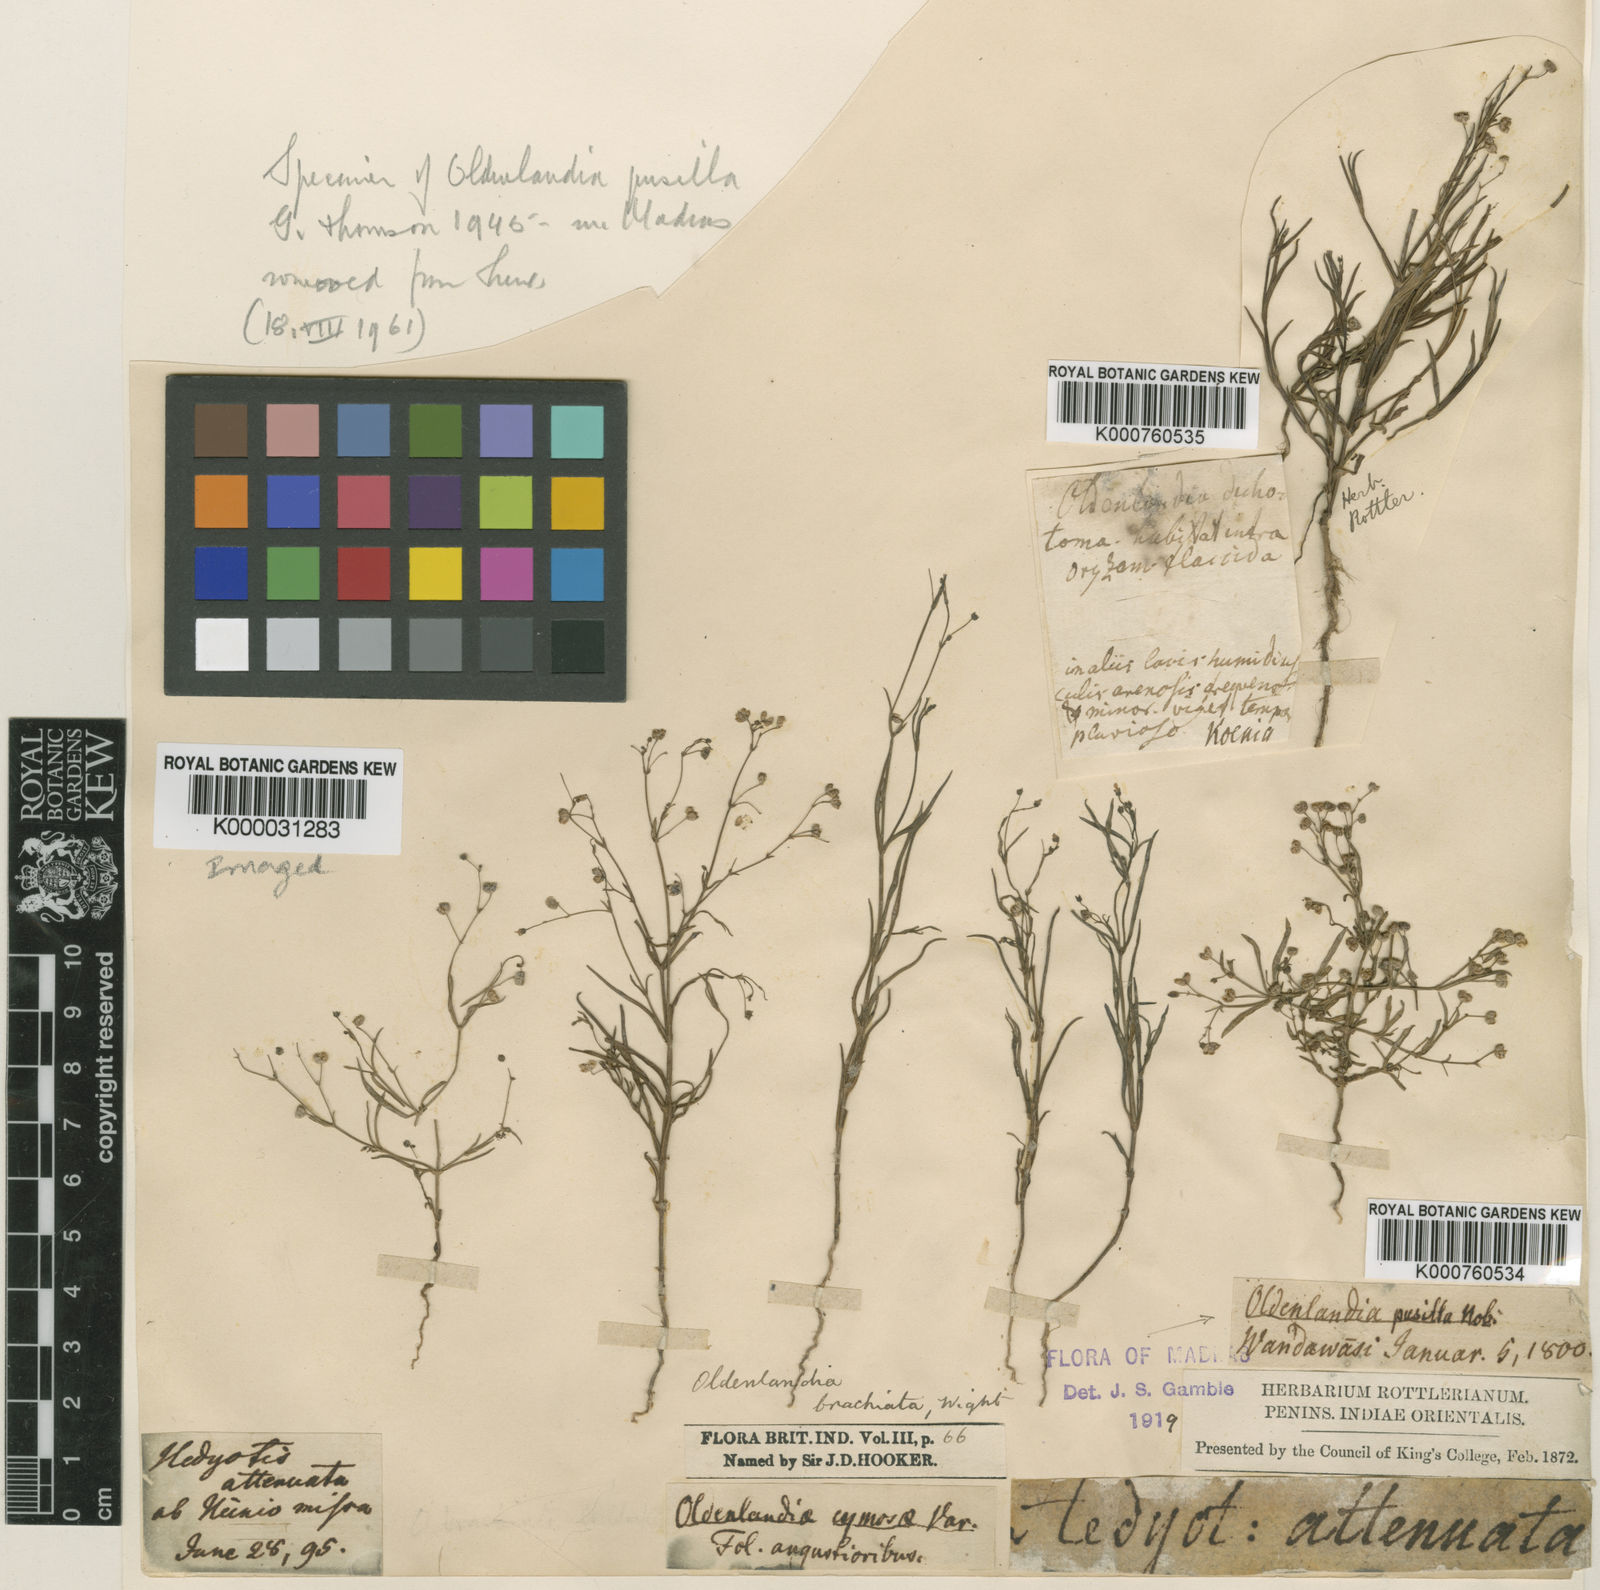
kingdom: Plantae
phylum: Tracheophyta
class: Magnoliopsida
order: Gentianales
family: Rubiaceae
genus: Kohautia
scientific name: Kohautia aspera
